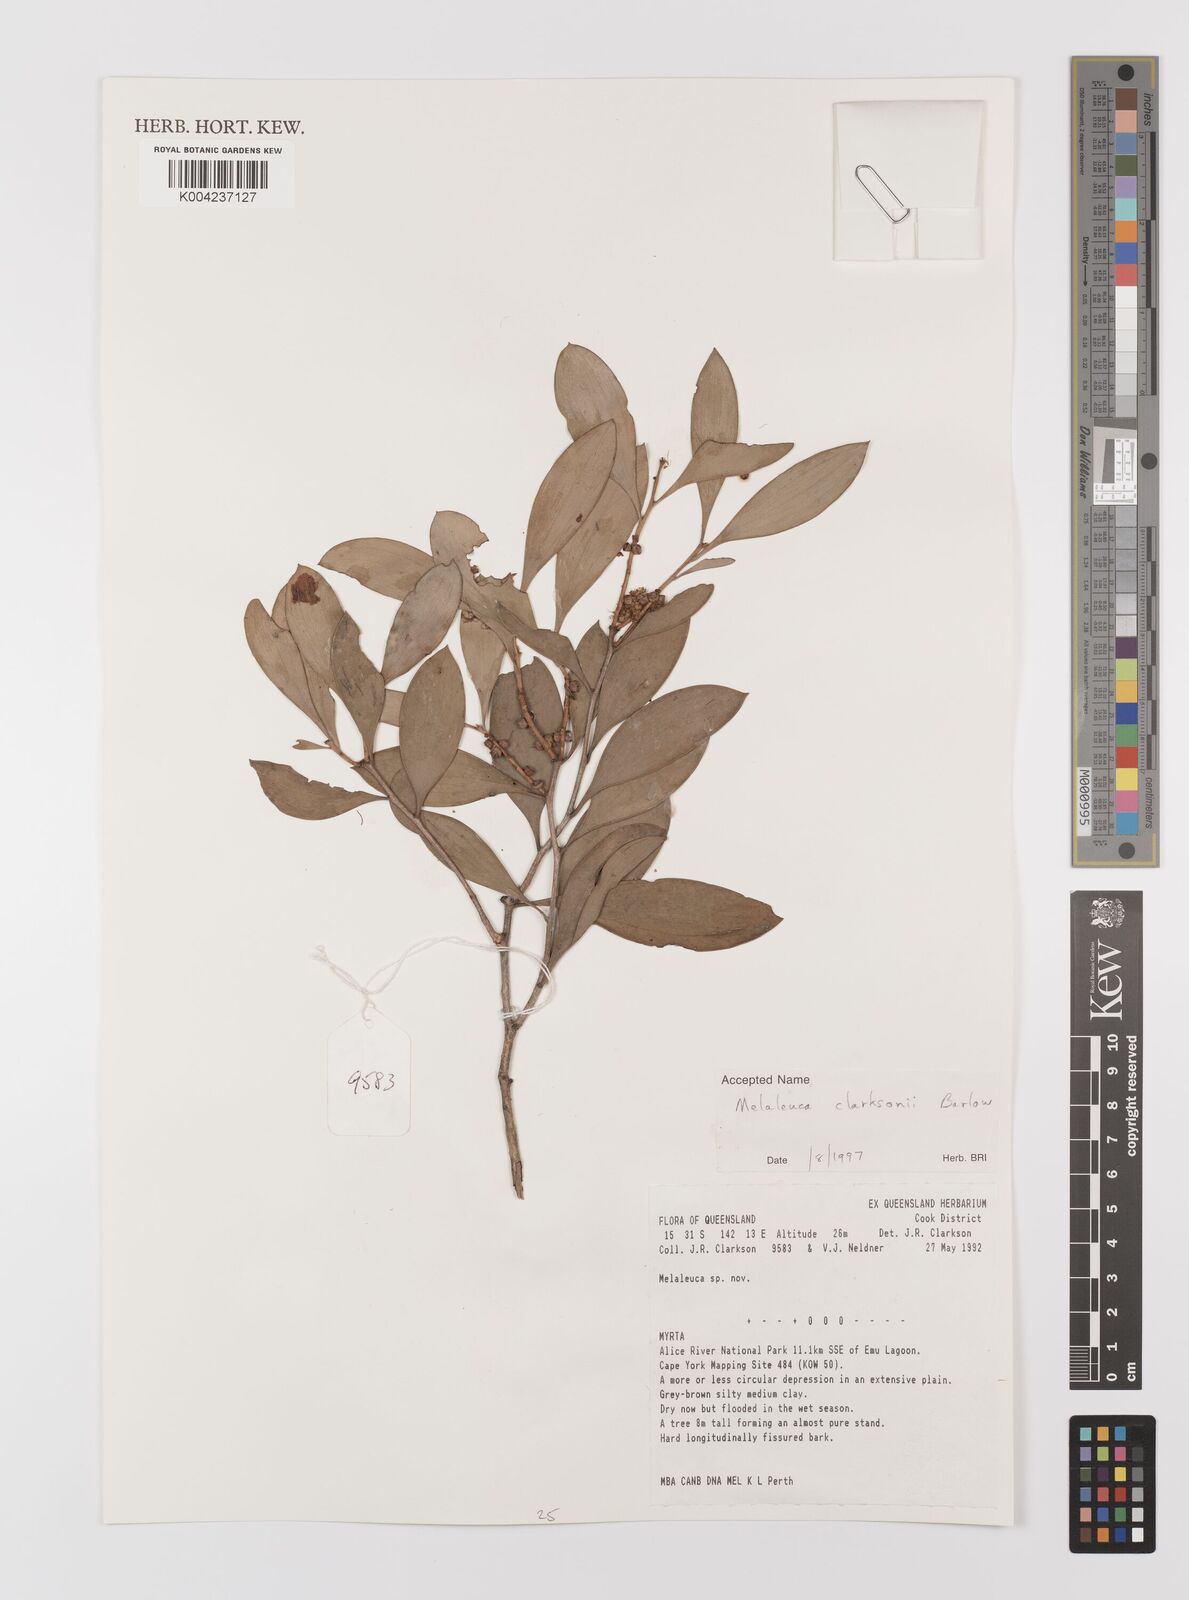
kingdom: Plantae
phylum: Tracheophyta
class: Magnoliopsida
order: Myrtales
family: Myrtaceae
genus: Melaleuca
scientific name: Melaleuca clarksonii
